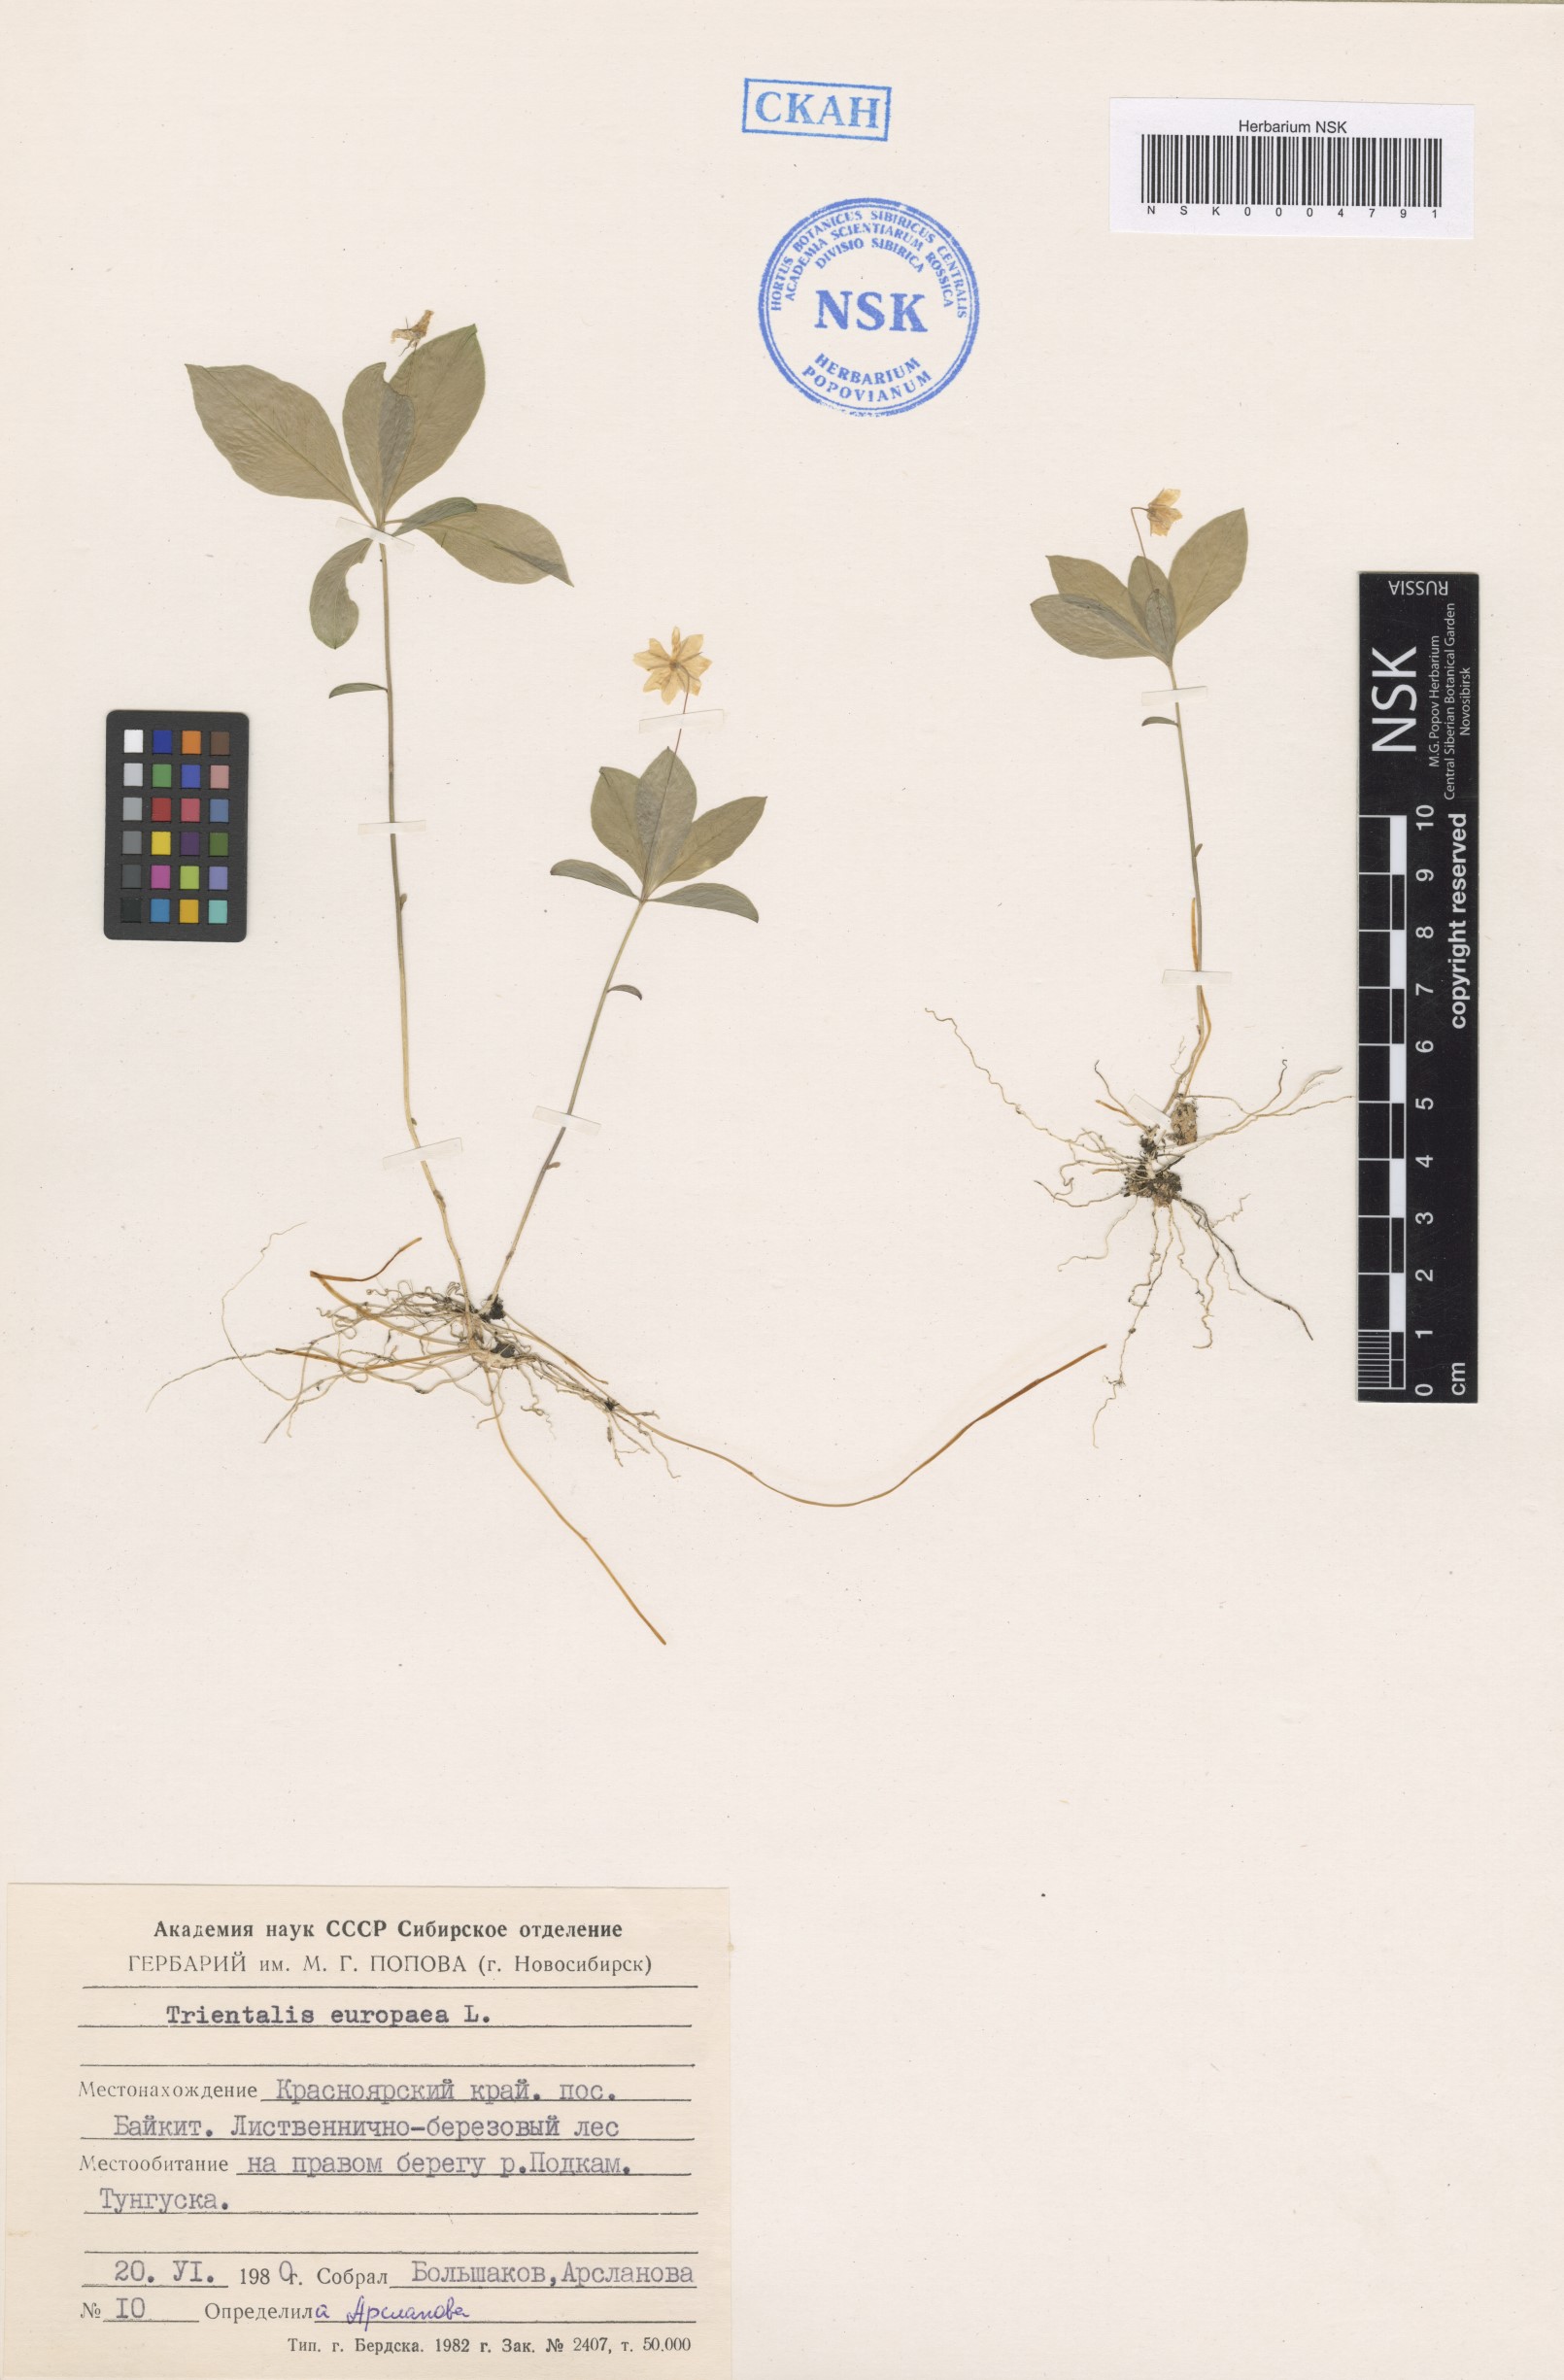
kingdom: Plantae
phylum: Tracheophyta
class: Magnoliopsida
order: Ericales
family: Primulaceae
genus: Lysimachia
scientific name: Lysimachia europaea
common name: Arctic starflower
